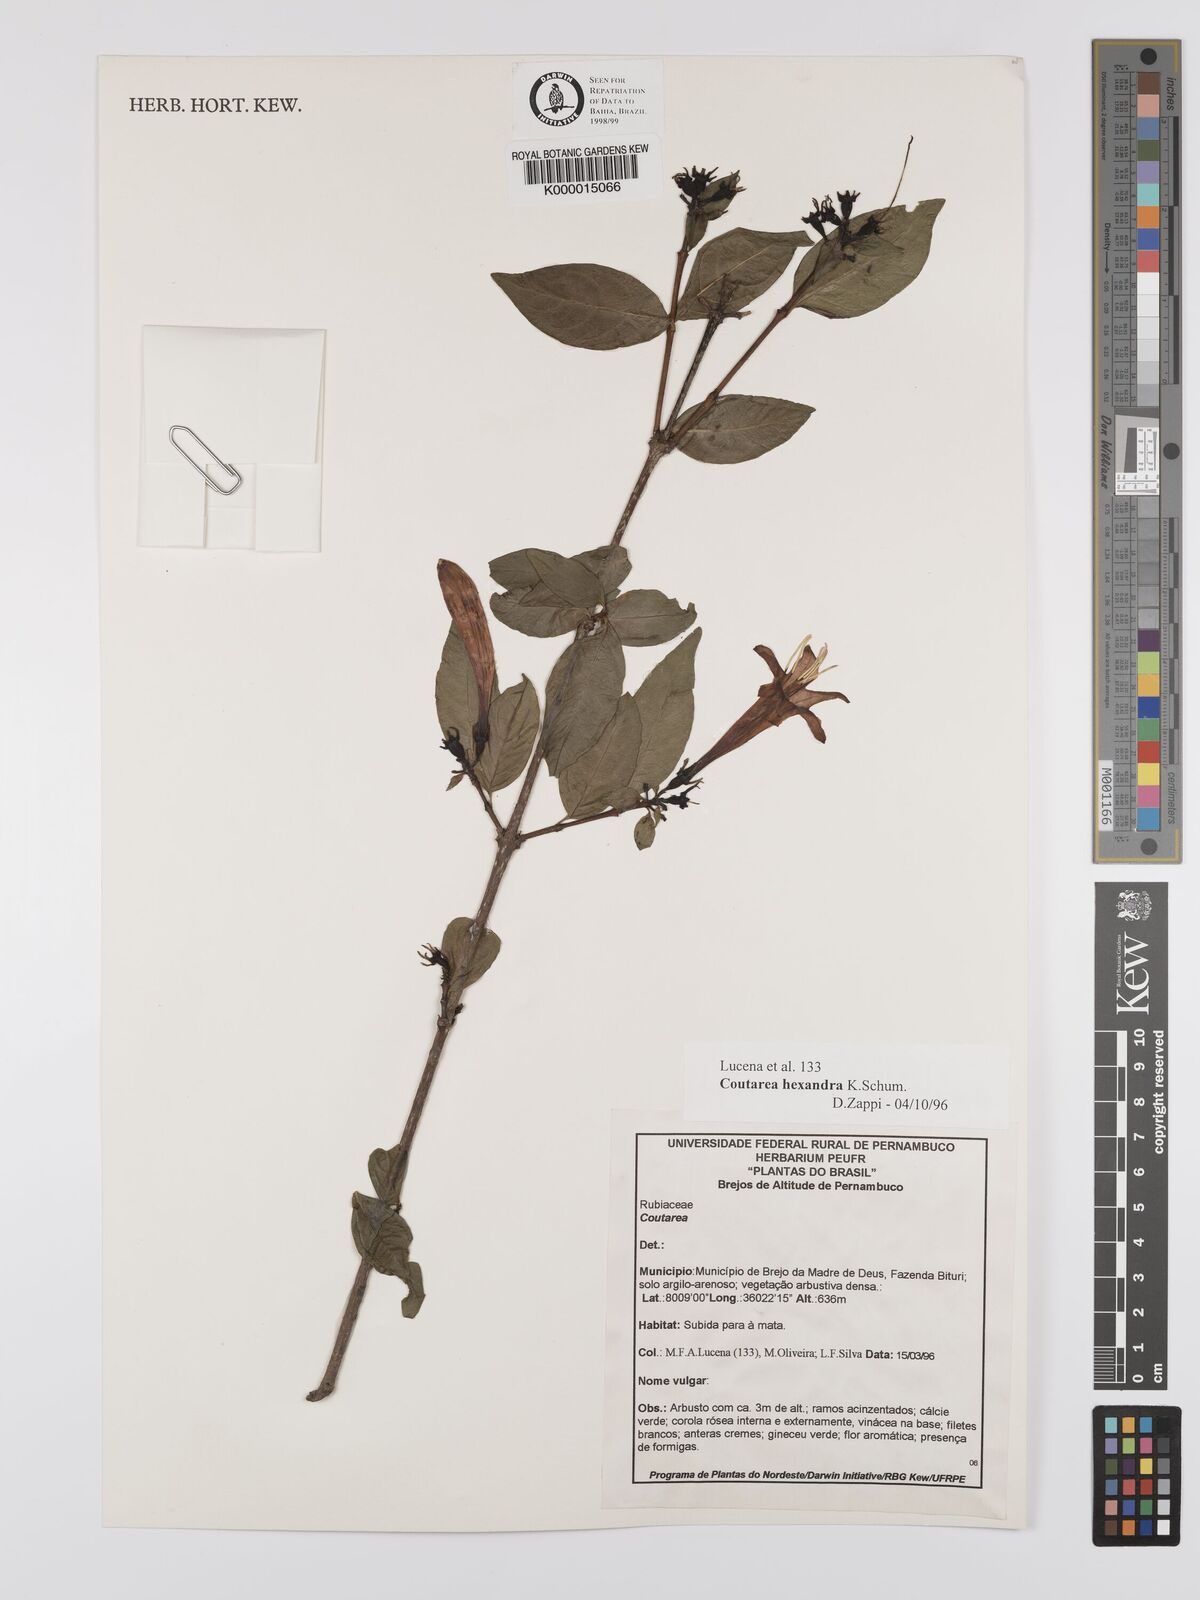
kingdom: Plantae
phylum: Tracheophyta
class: Magnoliopsida
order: Gentianales
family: Rubiaceae
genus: Coutarea
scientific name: Coutarea hexandra
